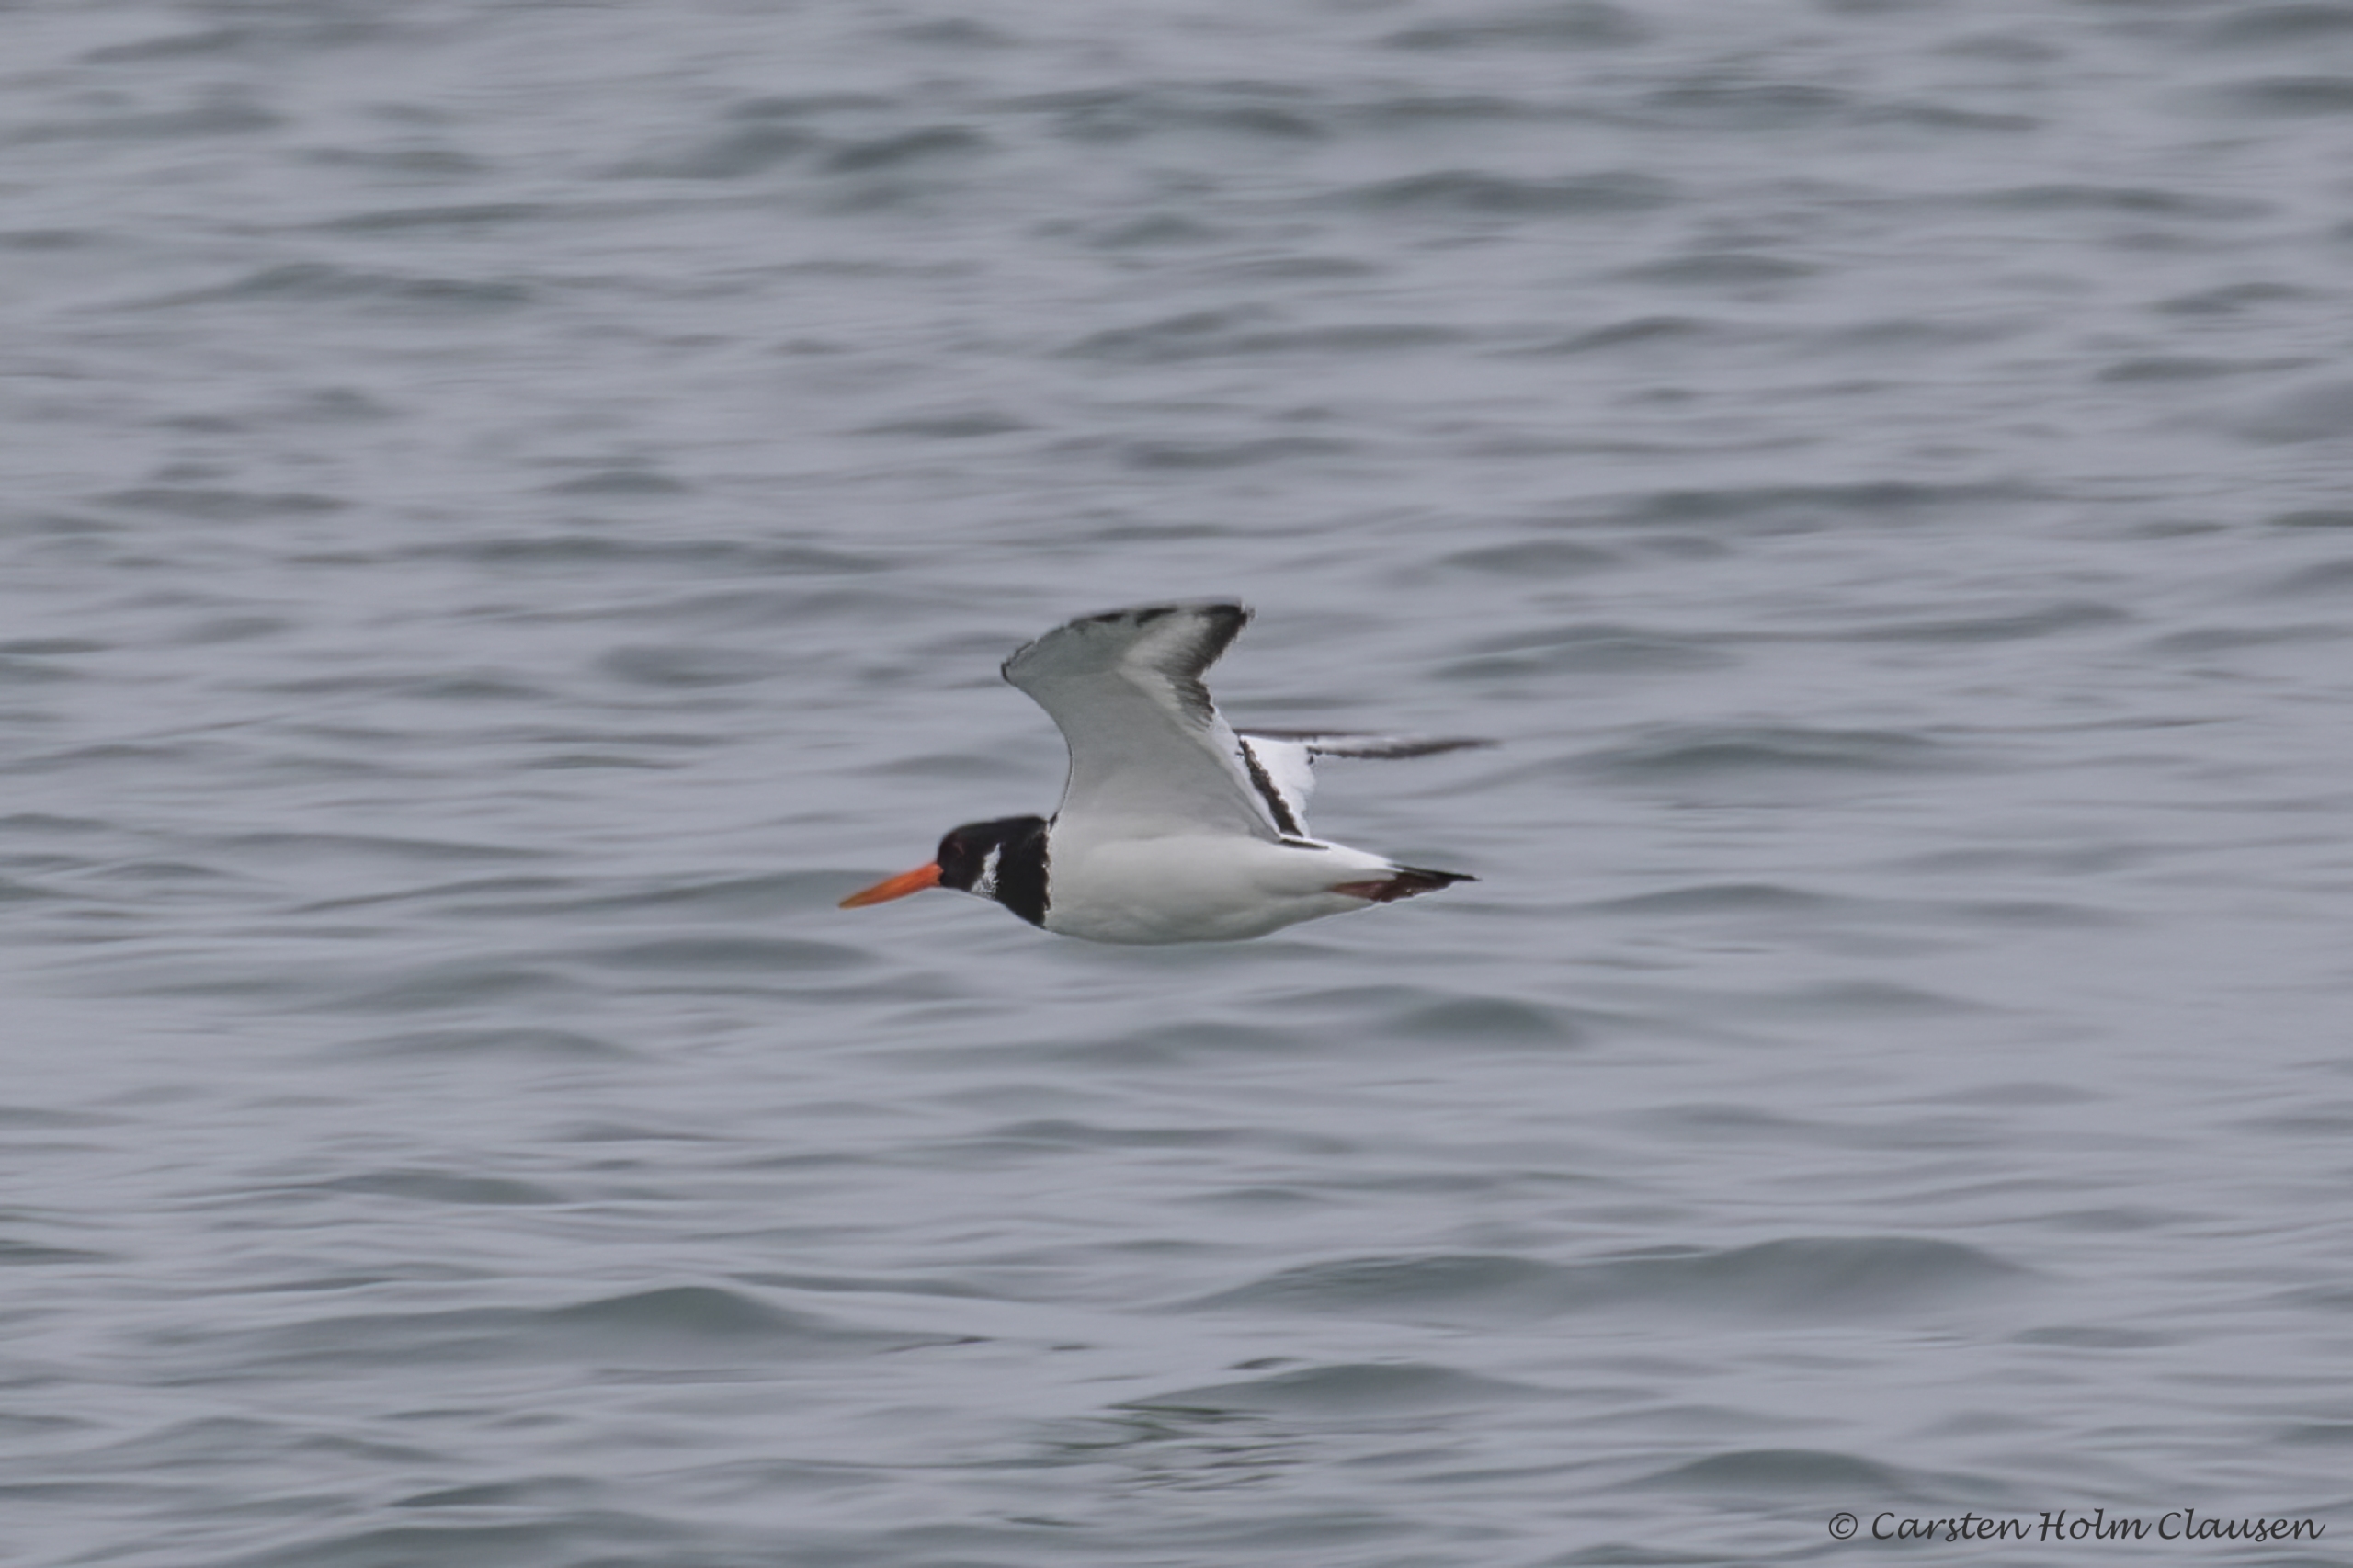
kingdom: Animalia
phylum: Chordata
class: Aves
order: Charadriiformes
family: Haematopodidae
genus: Haematopus
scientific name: Haematopus ostralegus
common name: Strandskade
